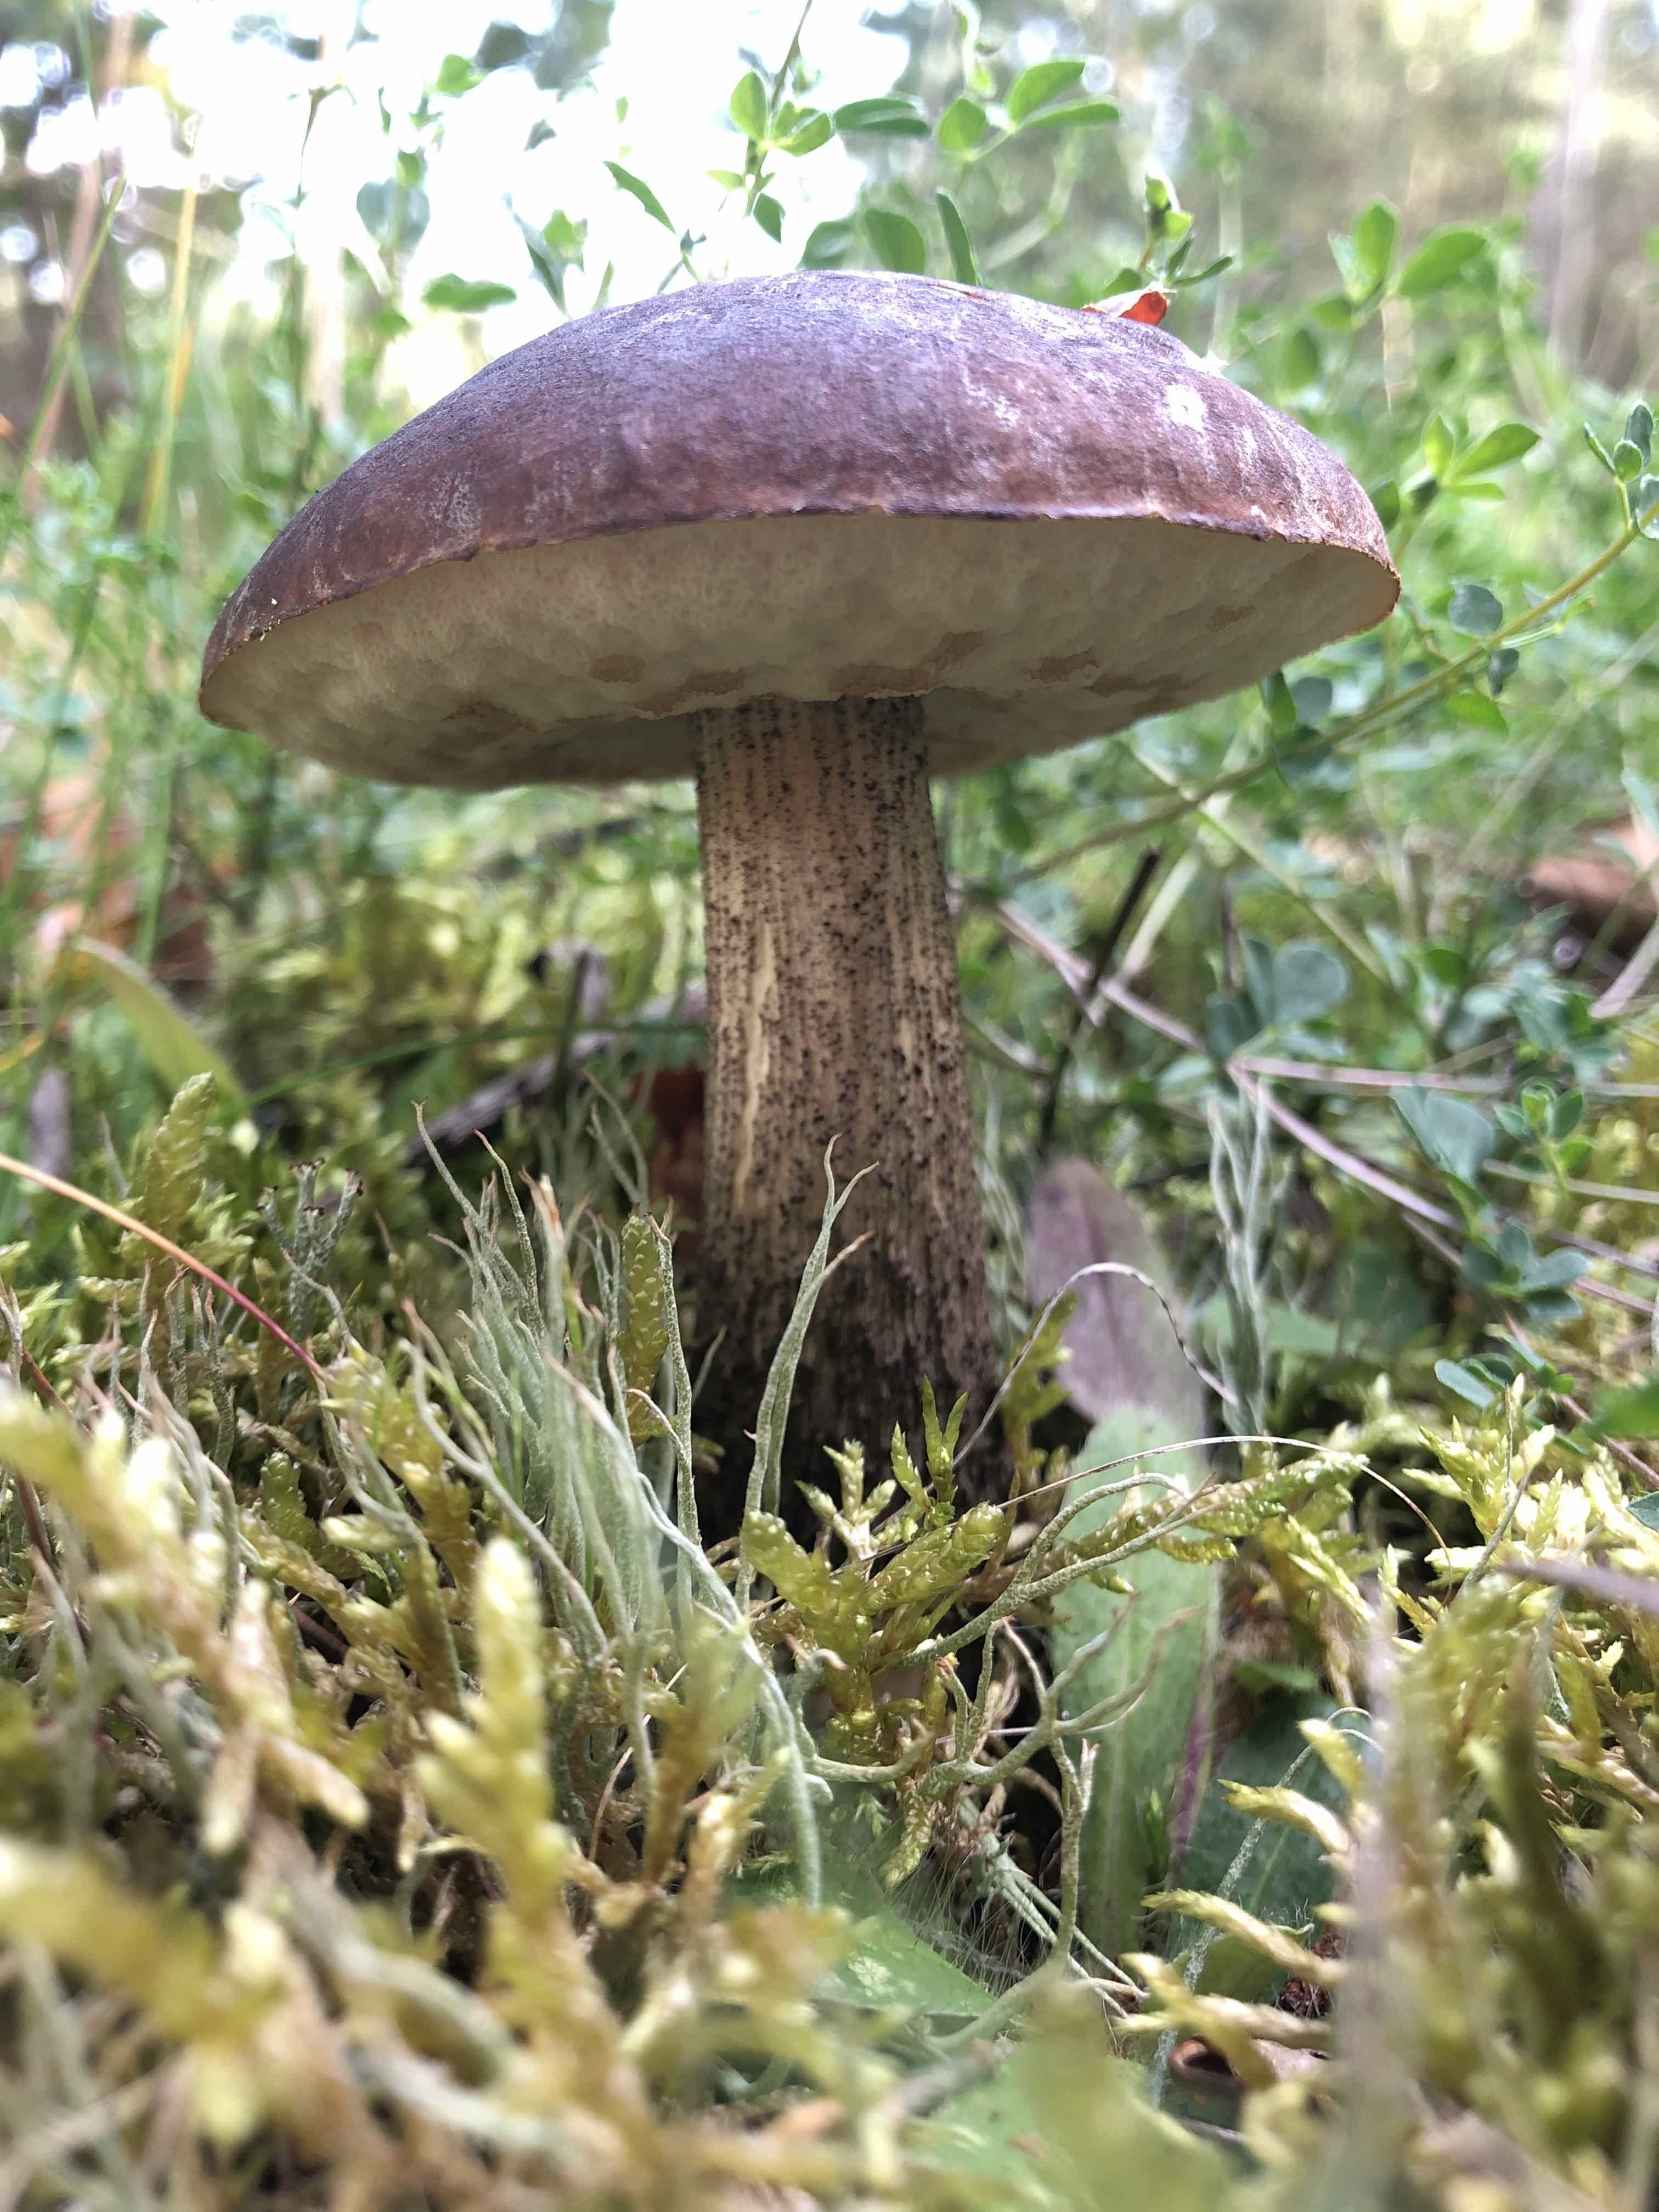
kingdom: Fungi
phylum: Basidiomycota
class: Agaricomycetes
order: Boletales
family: Boletaceae
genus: Leccinum
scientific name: Leccinum
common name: skælrørhat
